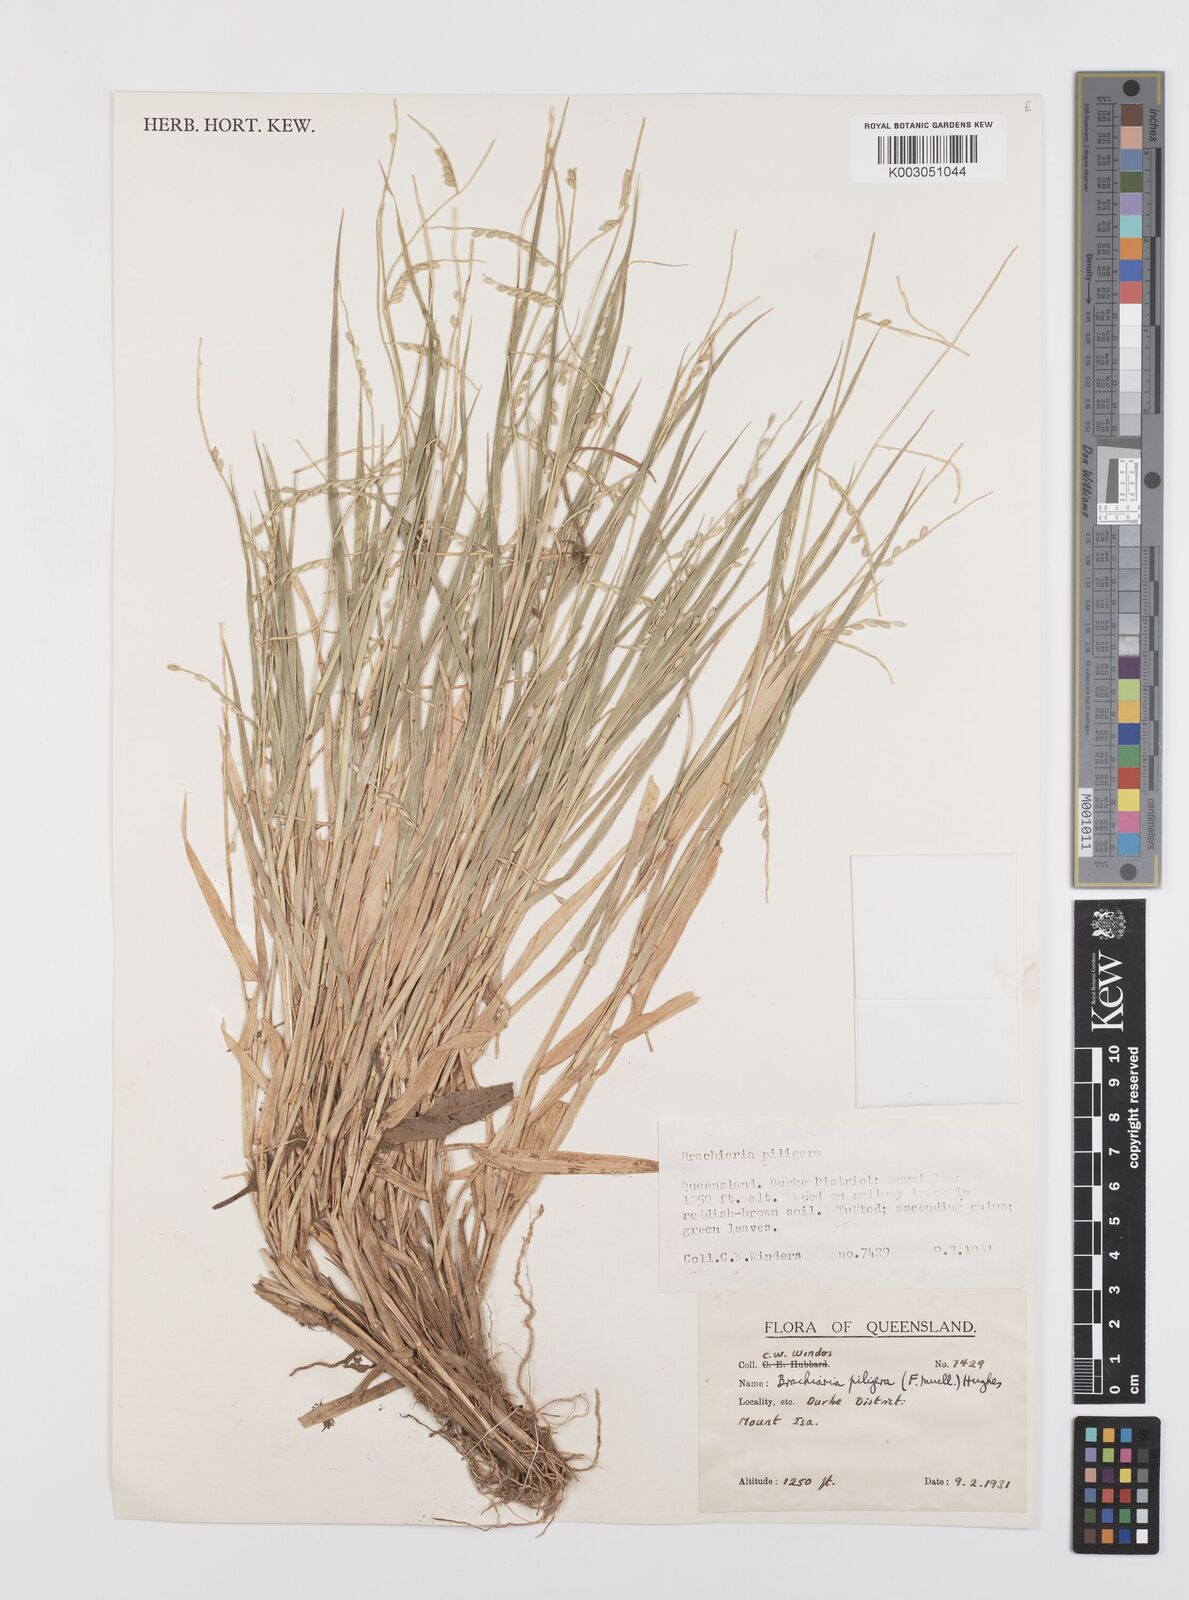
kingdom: Plantae
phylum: Tracheophyta
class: Liliopsida
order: Poales
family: Poaceae
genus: Urochloa
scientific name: Urochloa piligera
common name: Wattle signalgrass
